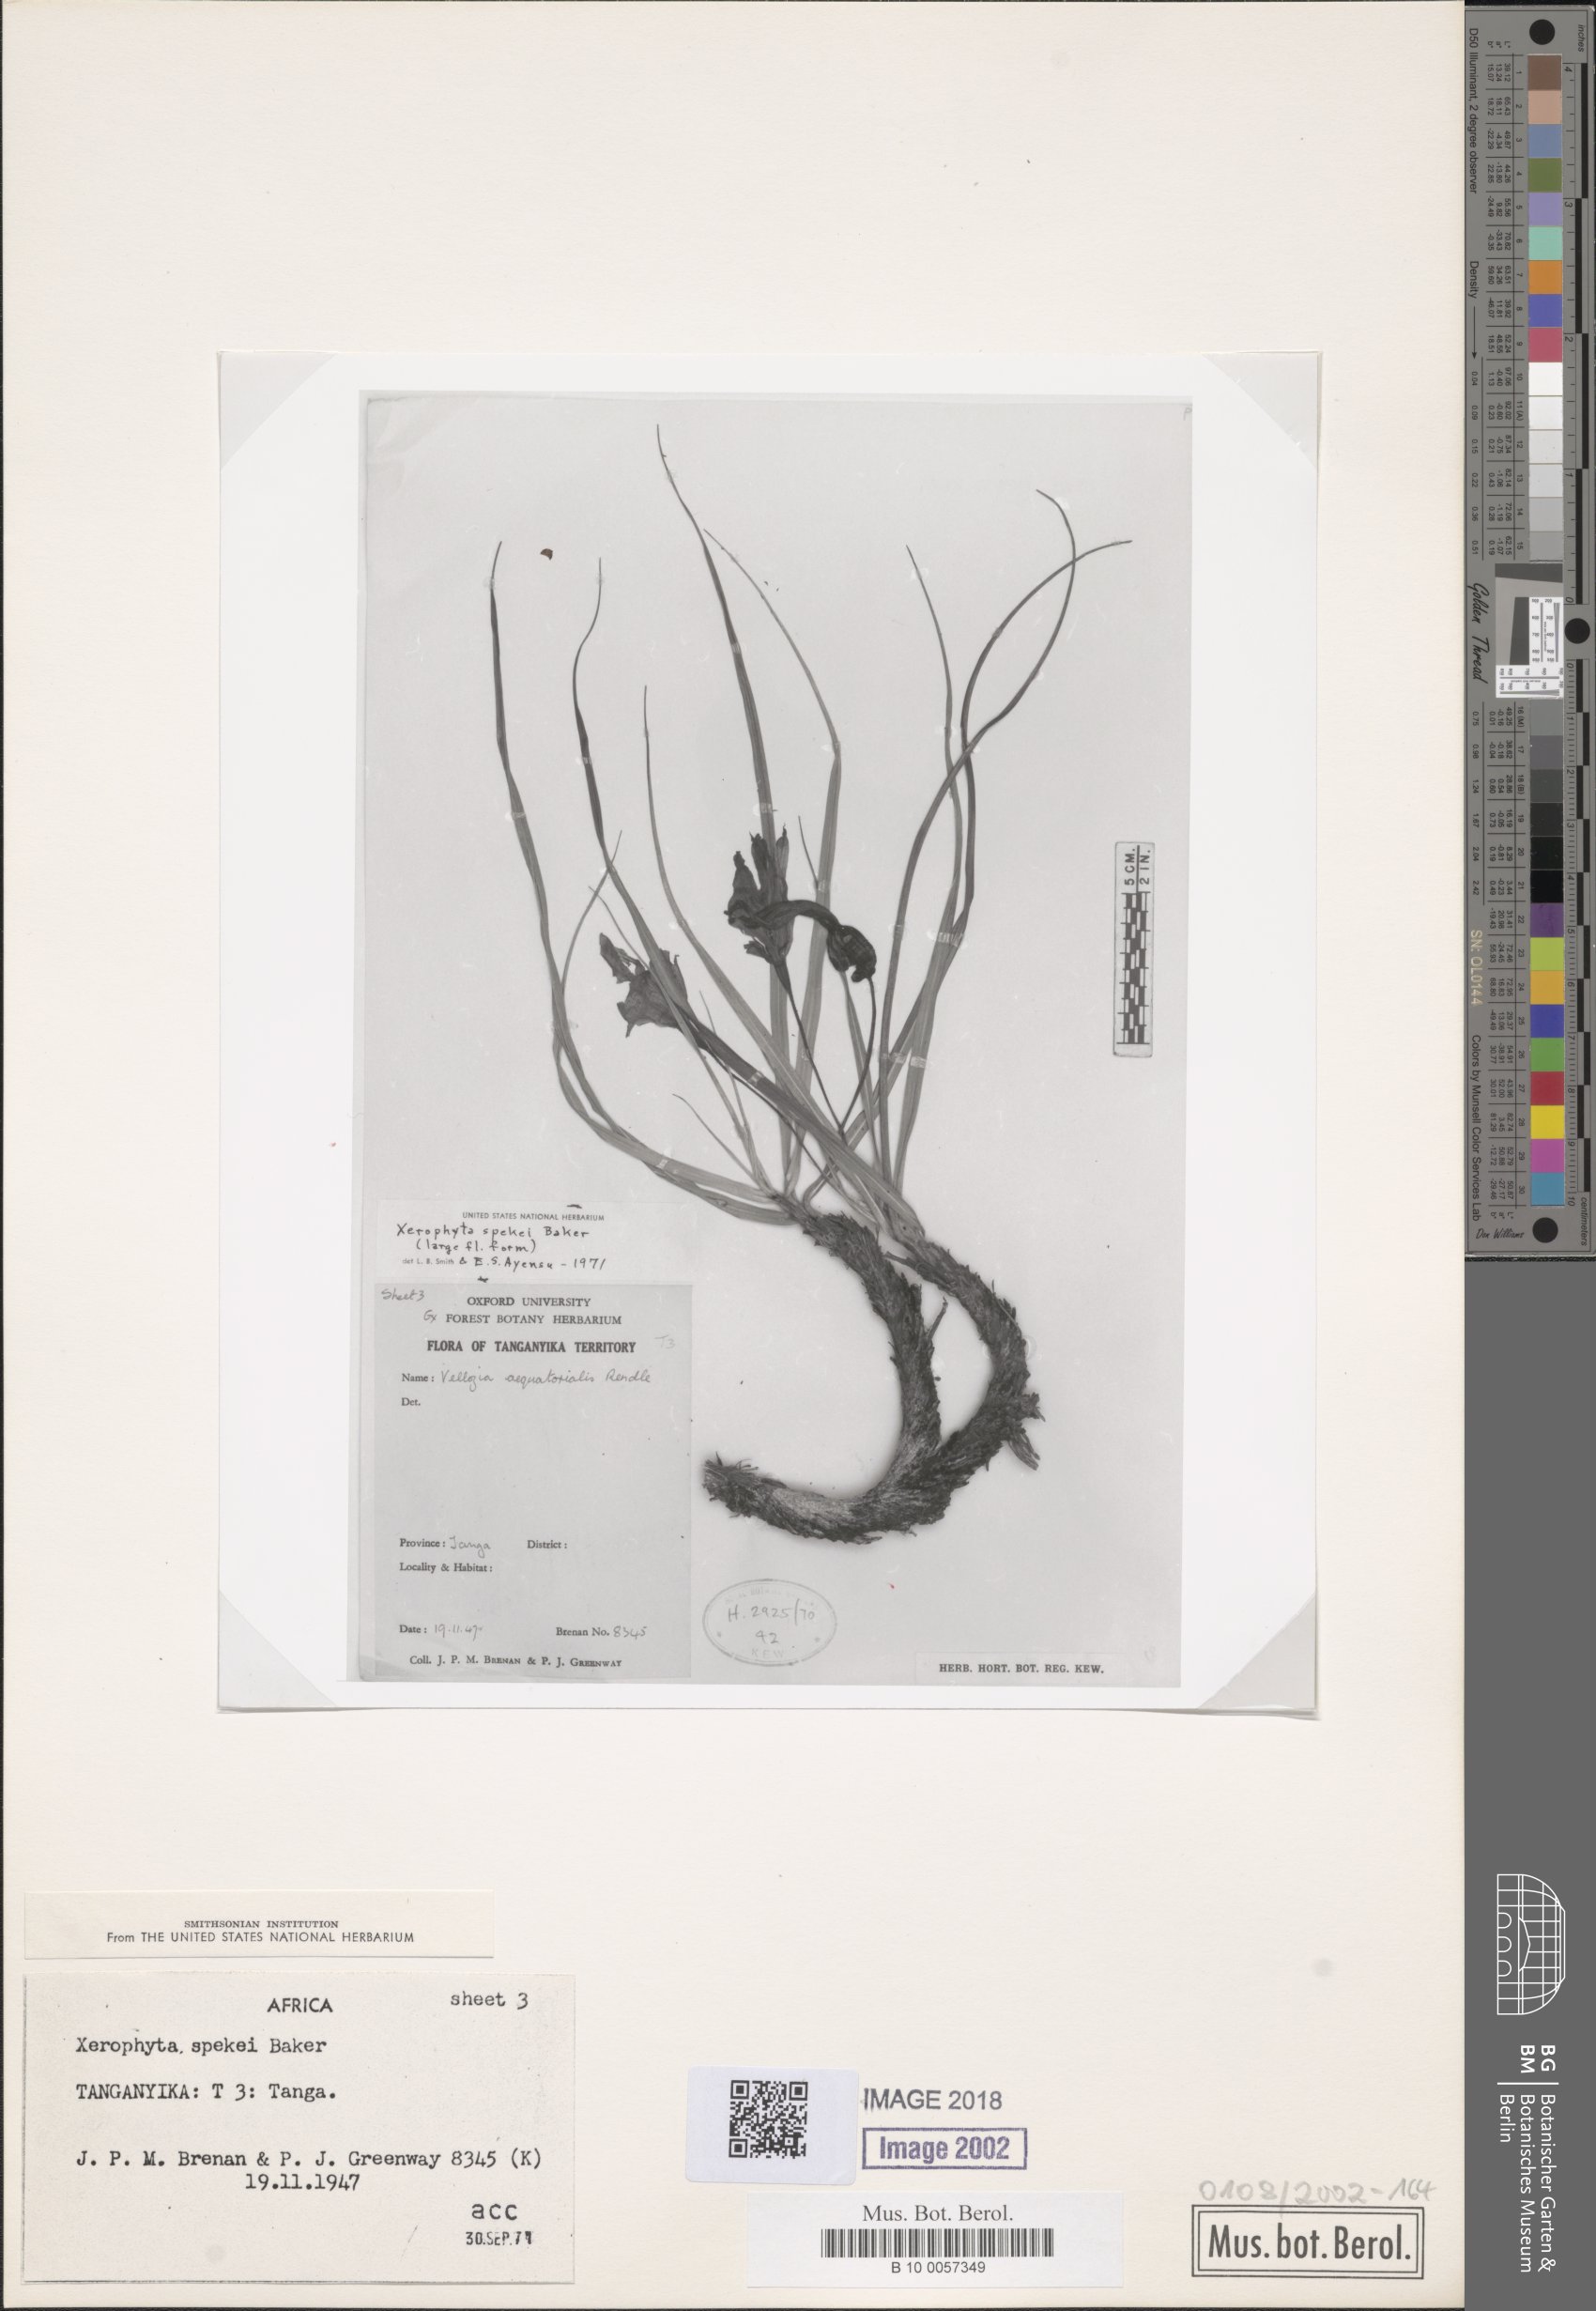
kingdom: Plantae
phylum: Tracheophyta
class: Liliopsida
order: Pandanales
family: Velloziaceae
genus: Xerophyta
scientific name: Xerophyta spekei
